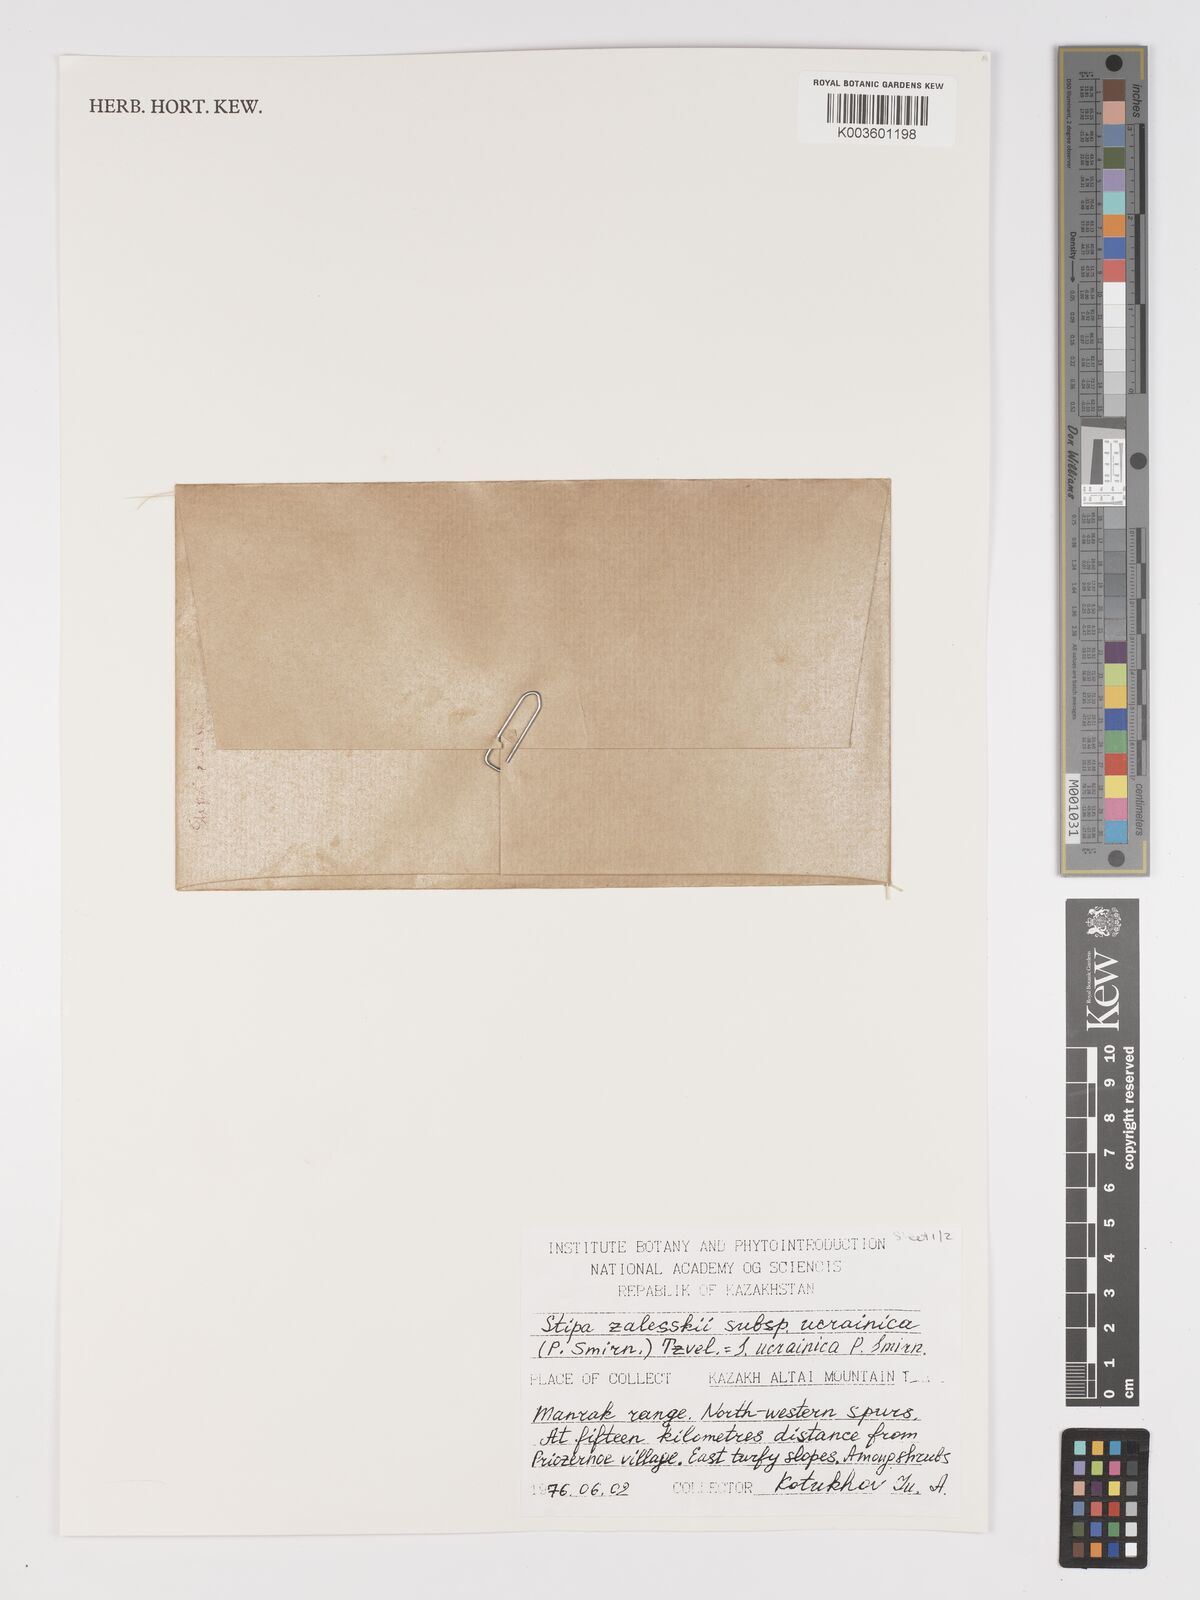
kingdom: Plantae
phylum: Tracheophyta
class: Liliopsida
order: Poales
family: Poaceae
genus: Stipa
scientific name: Stipa
